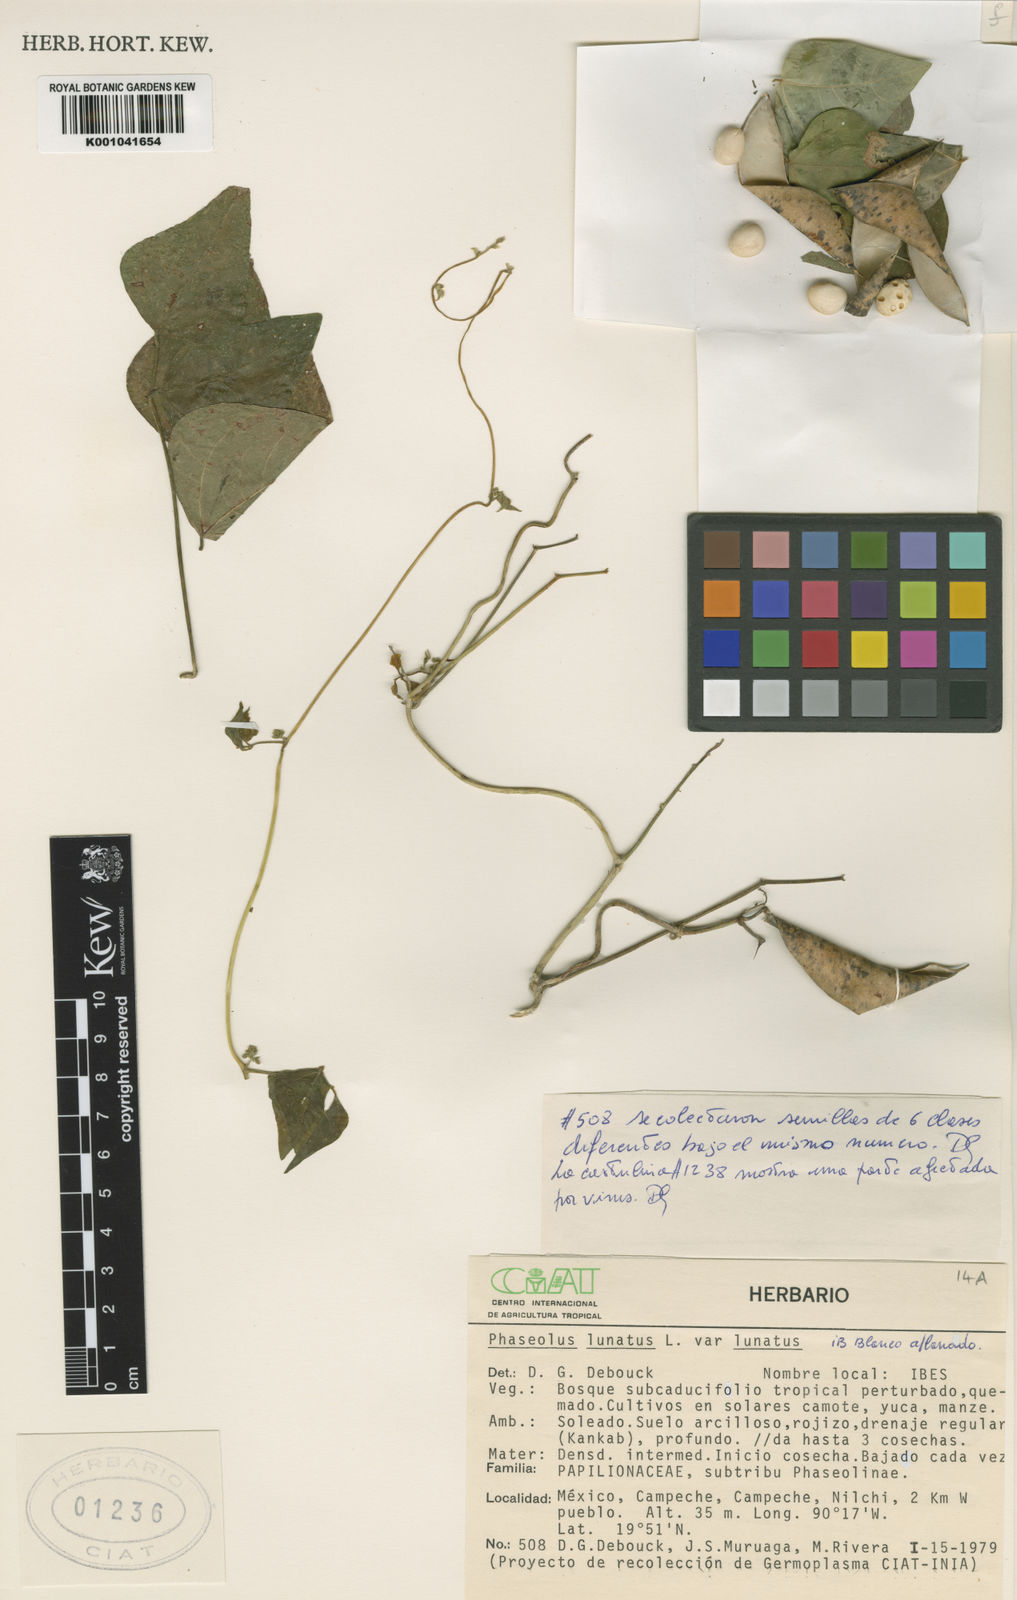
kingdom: Plantae
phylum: Tracheophyta
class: Magnoliopsida
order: Fabales
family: Fabaceae
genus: Phaseolus
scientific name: Phaseolus
